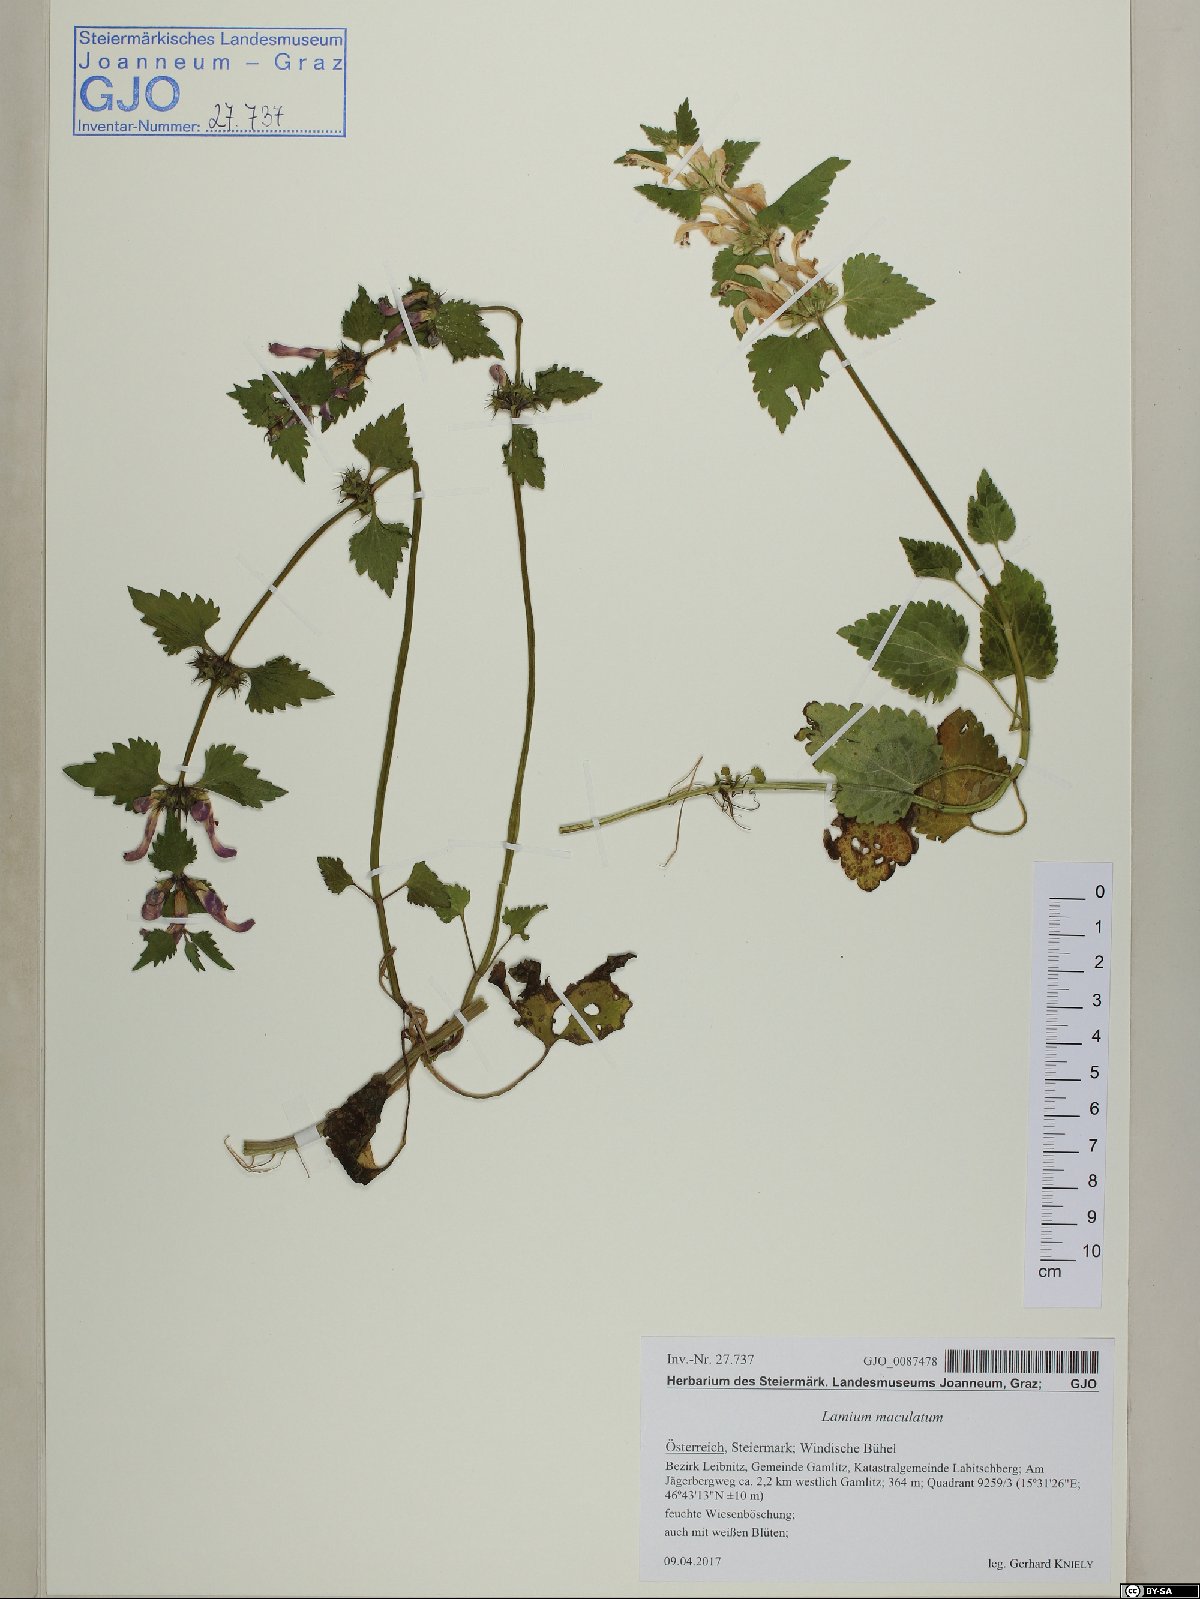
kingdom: Plantae
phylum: Tracheophyta
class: Magnoliopsida
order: Lamiales
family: Lamiaceae
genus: Lamium
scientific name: Lamium maculatum
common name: Spotted dead-nettle
